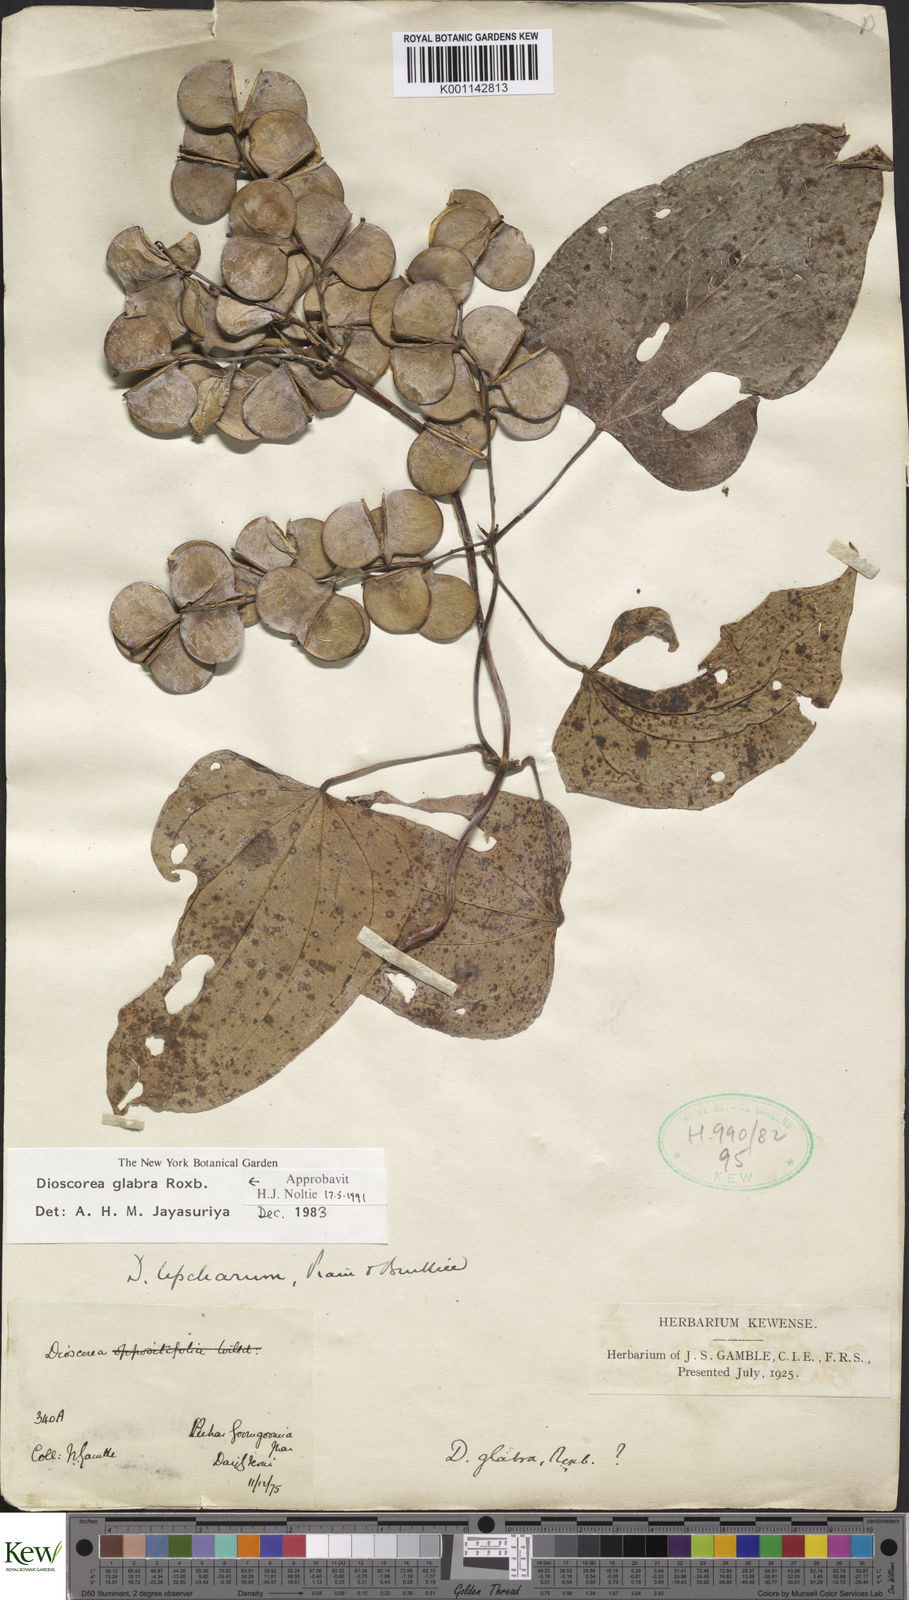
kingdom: Plantae
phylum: Tracheophyta
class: Liliopsida
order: Dioscoreales
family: Dioscoreaceae
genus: Dioscorea
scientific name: Dioscorea glabra
